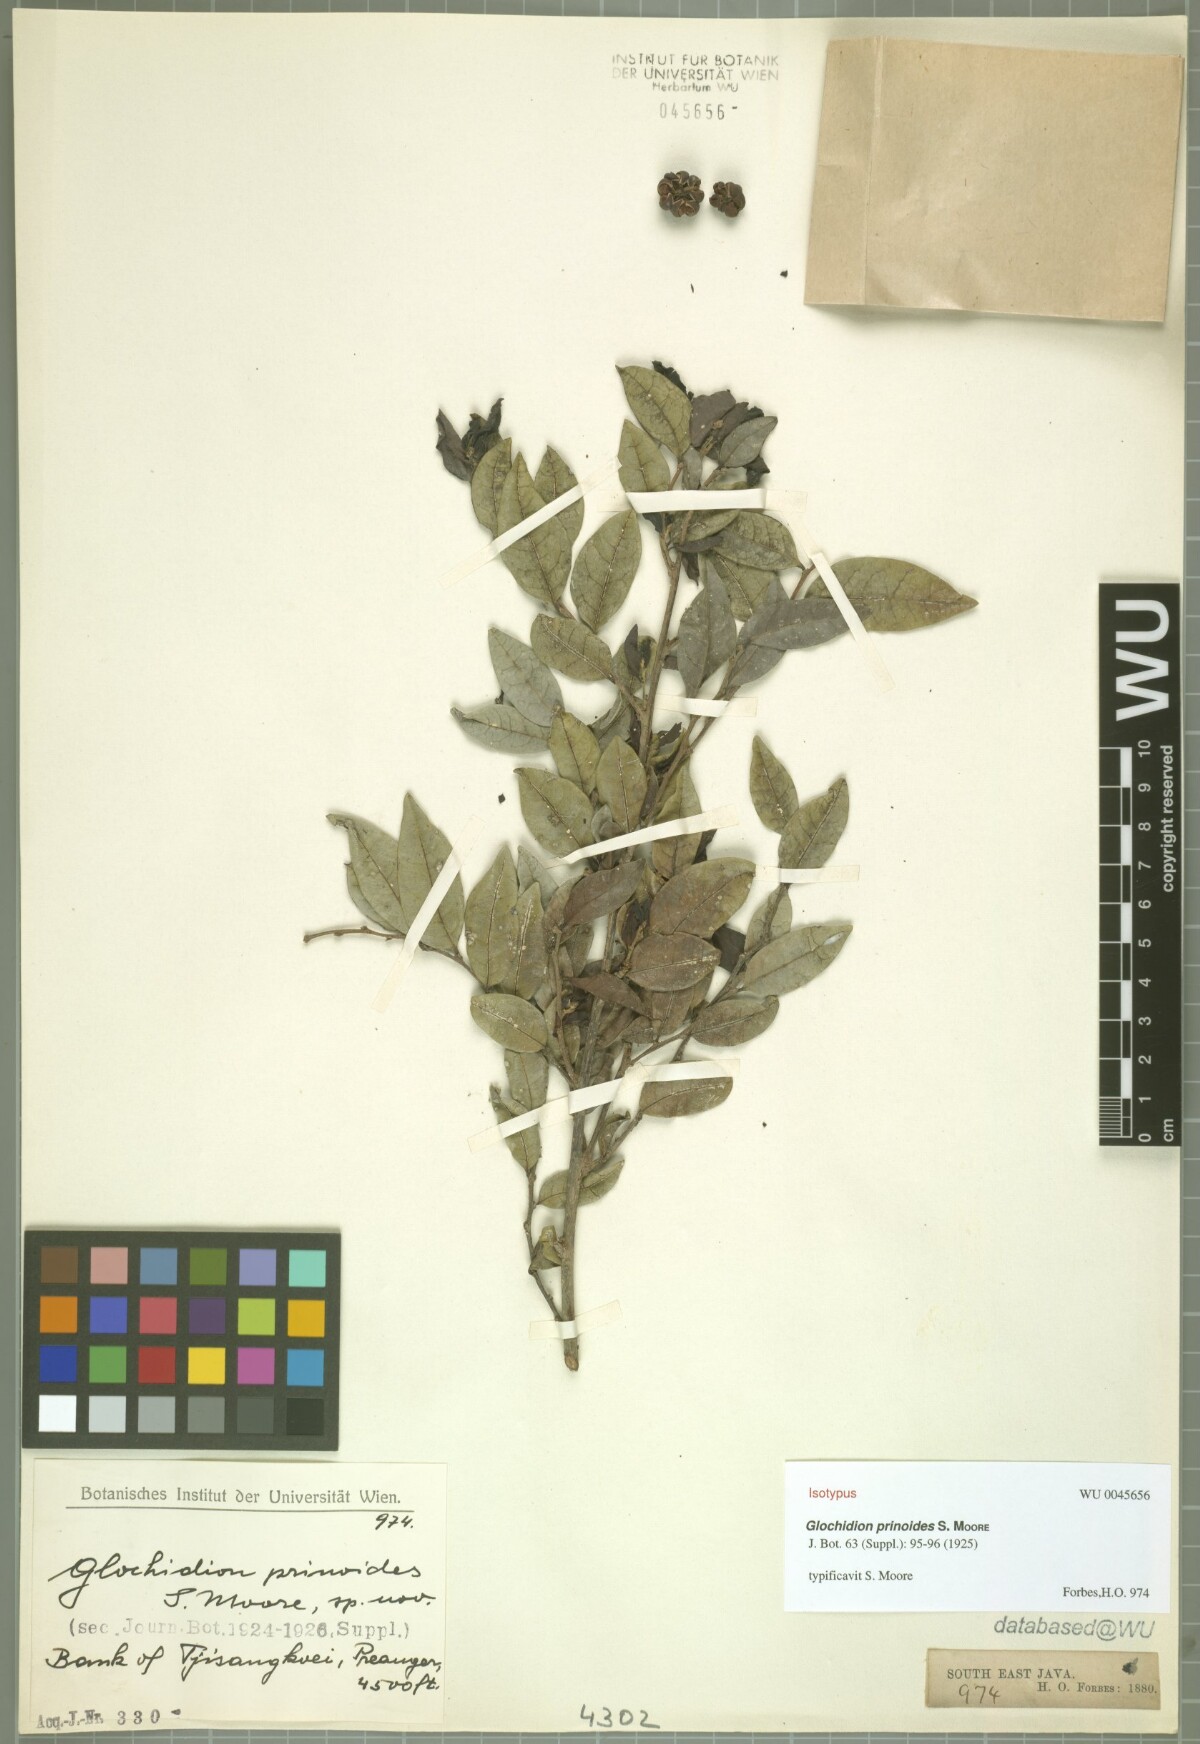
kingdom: Plantae
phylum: Tracheophyta
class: Magnoliopsida
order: Malpighiales
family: Phyllanthaceae
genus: Glochidion
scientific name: Glochidion prinoides
